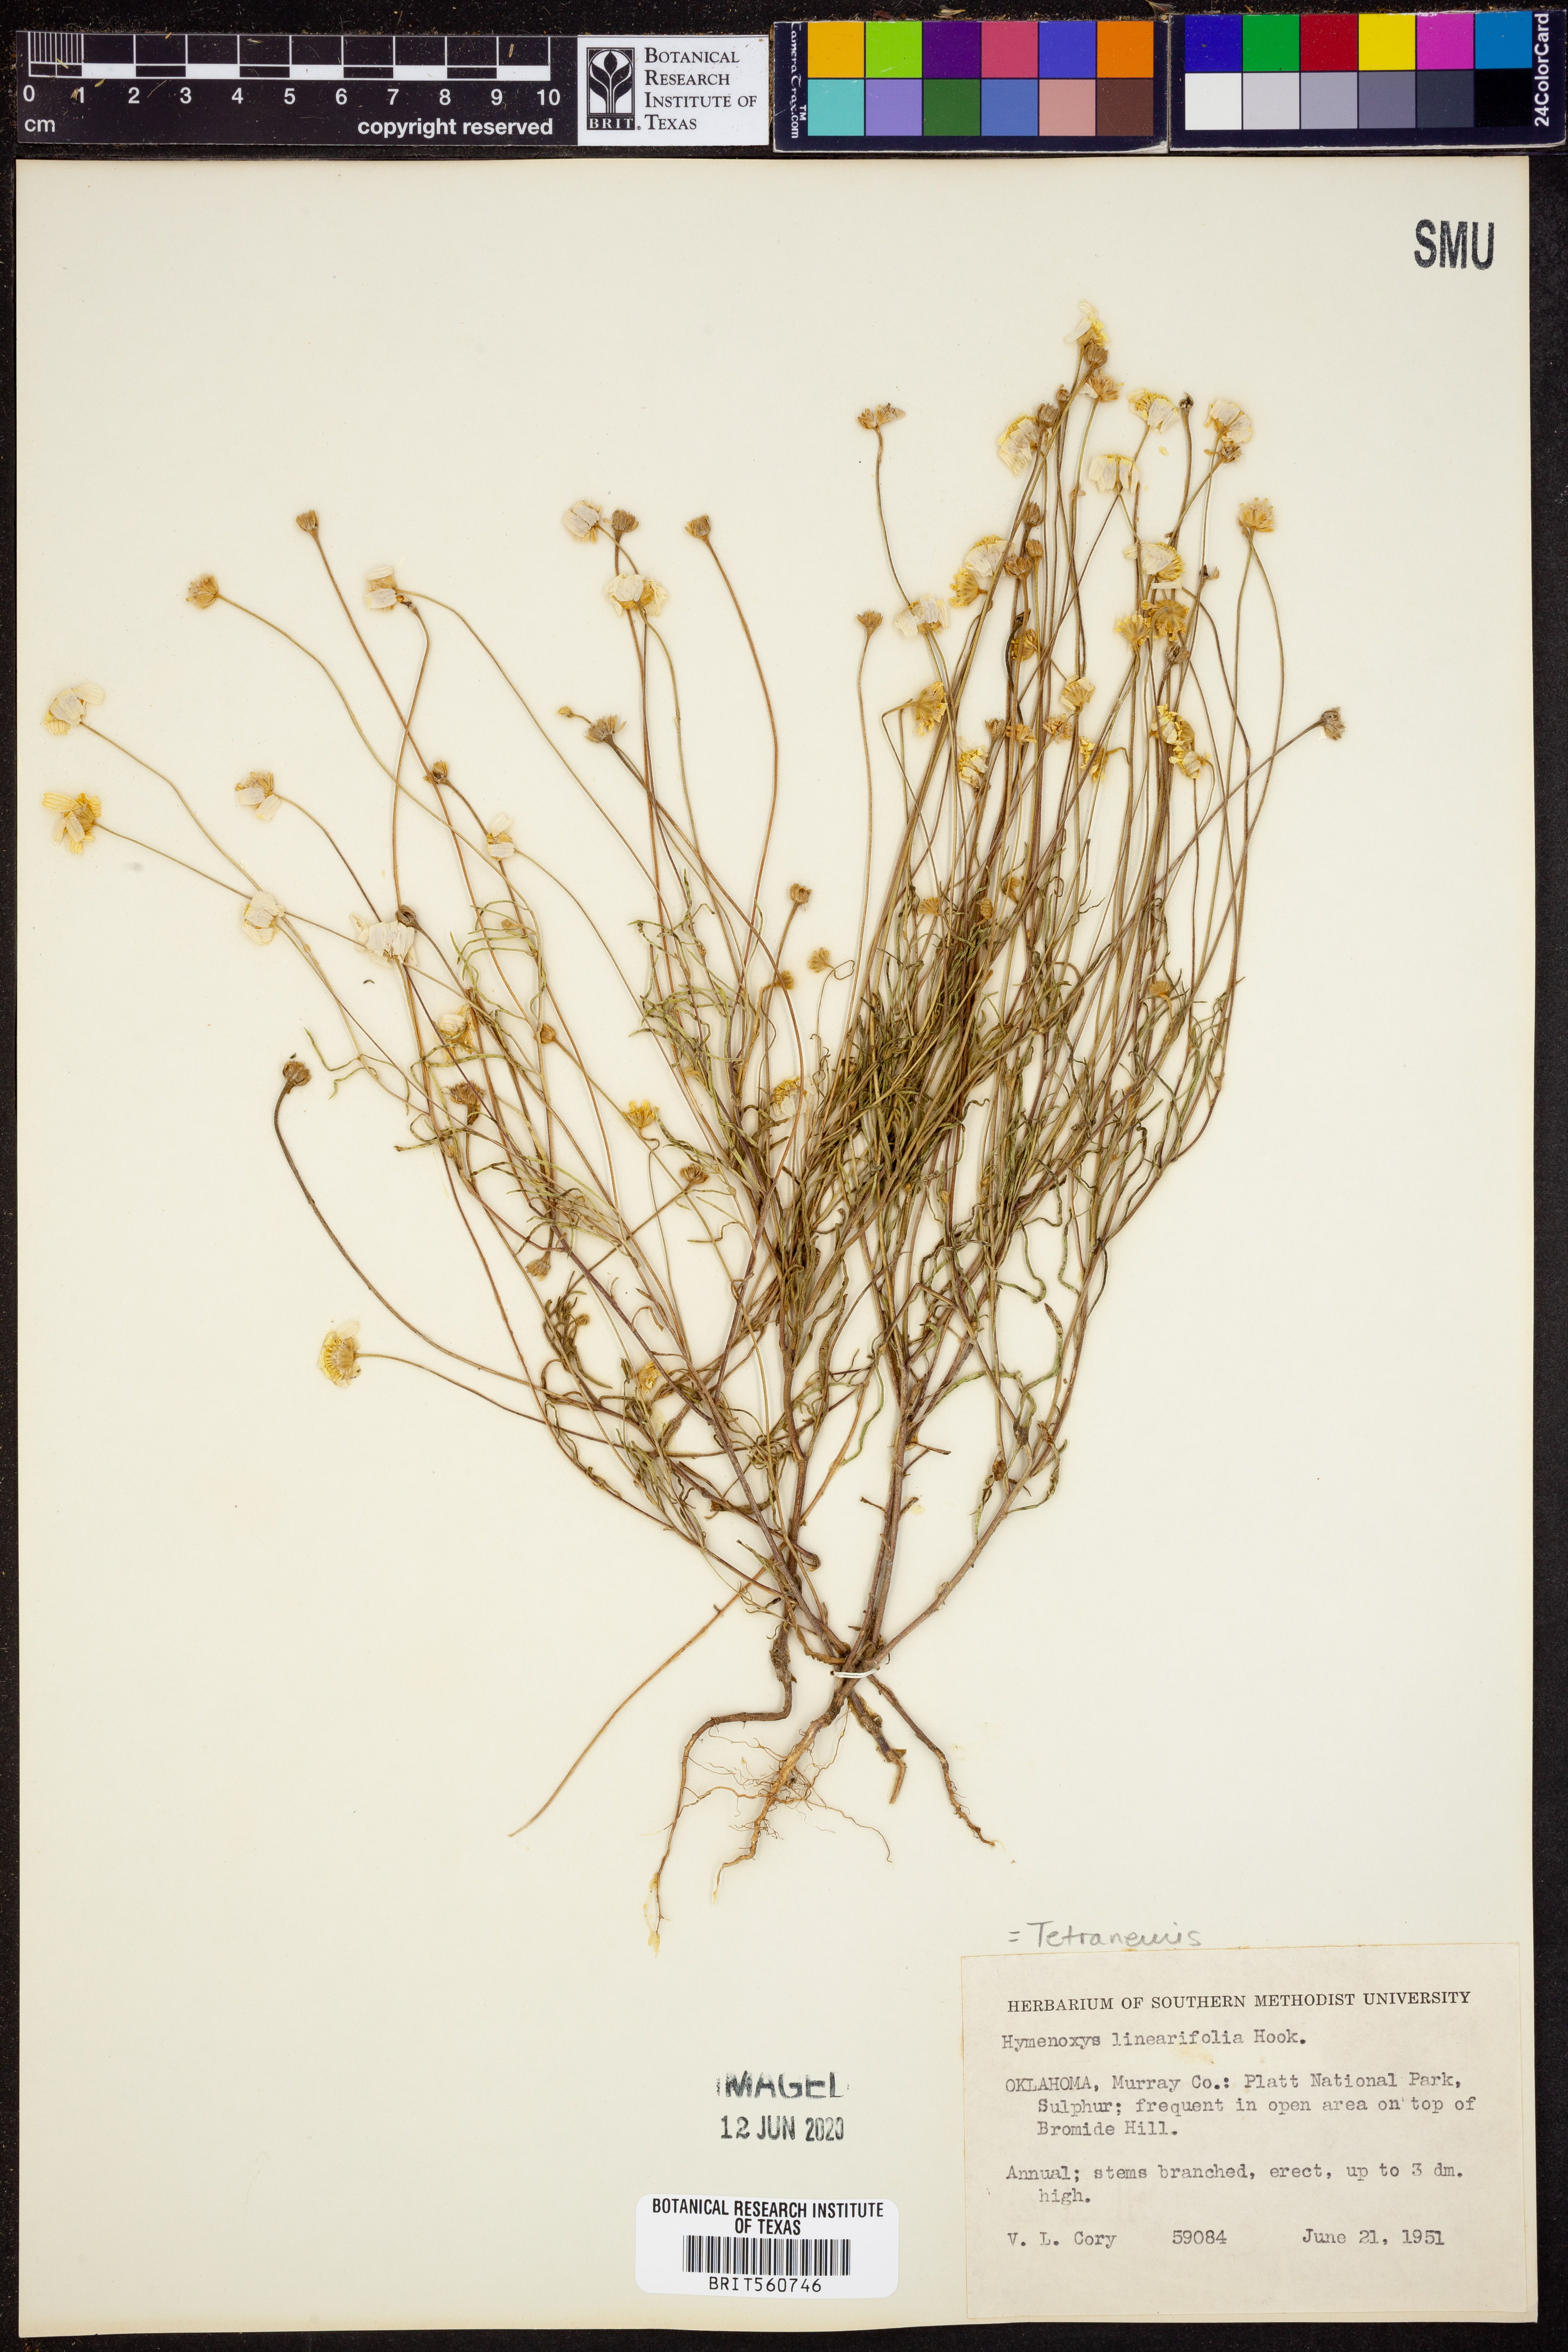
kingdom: Plantae
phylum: Tracheophyta
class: Magnoliopsida
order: Asterales
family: Asteraceae
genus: Tetraneuris
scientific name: Tetraneuris linearifolia
